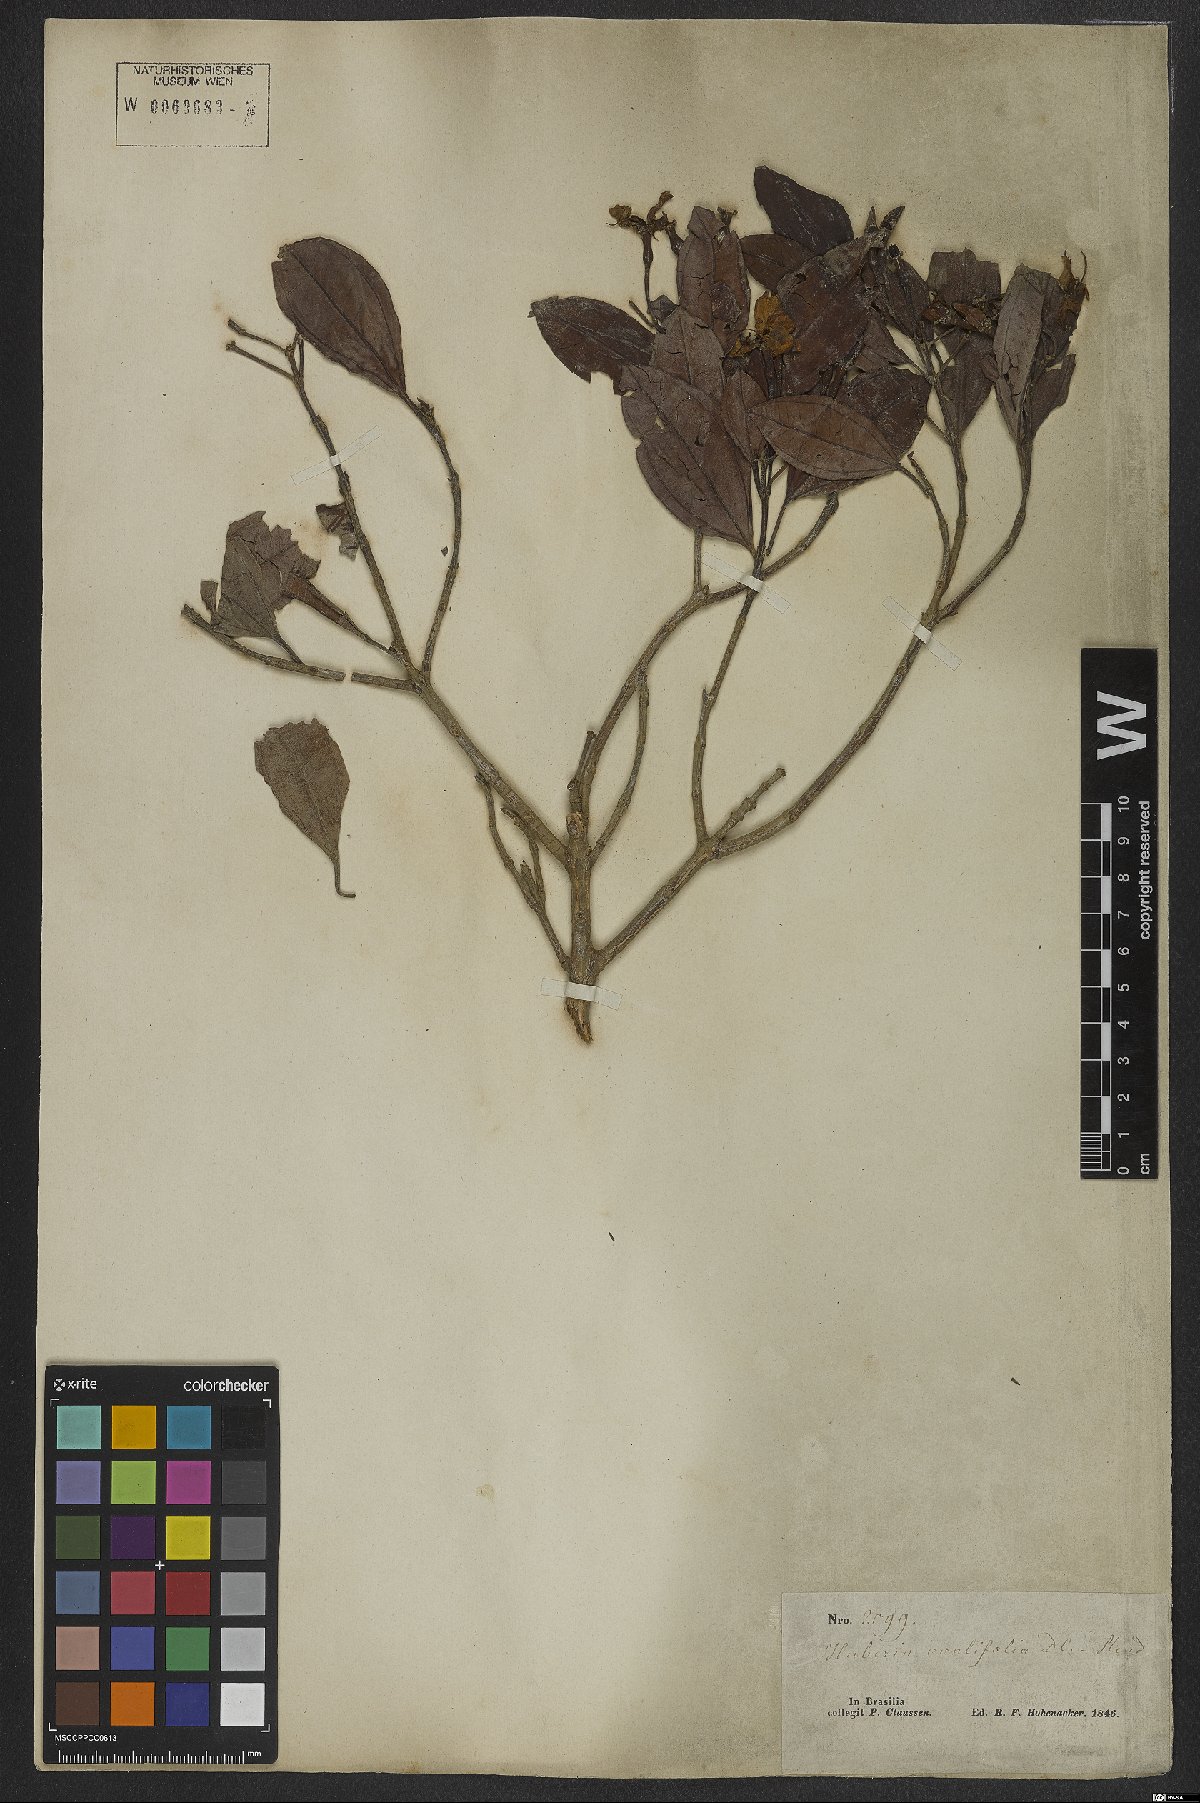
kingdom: Plantae
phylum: Tracheophyta
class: Magnoliopsida
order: Myrtales
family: Melastomataceae
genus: Huberia
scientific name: Huberia ovalifolia
